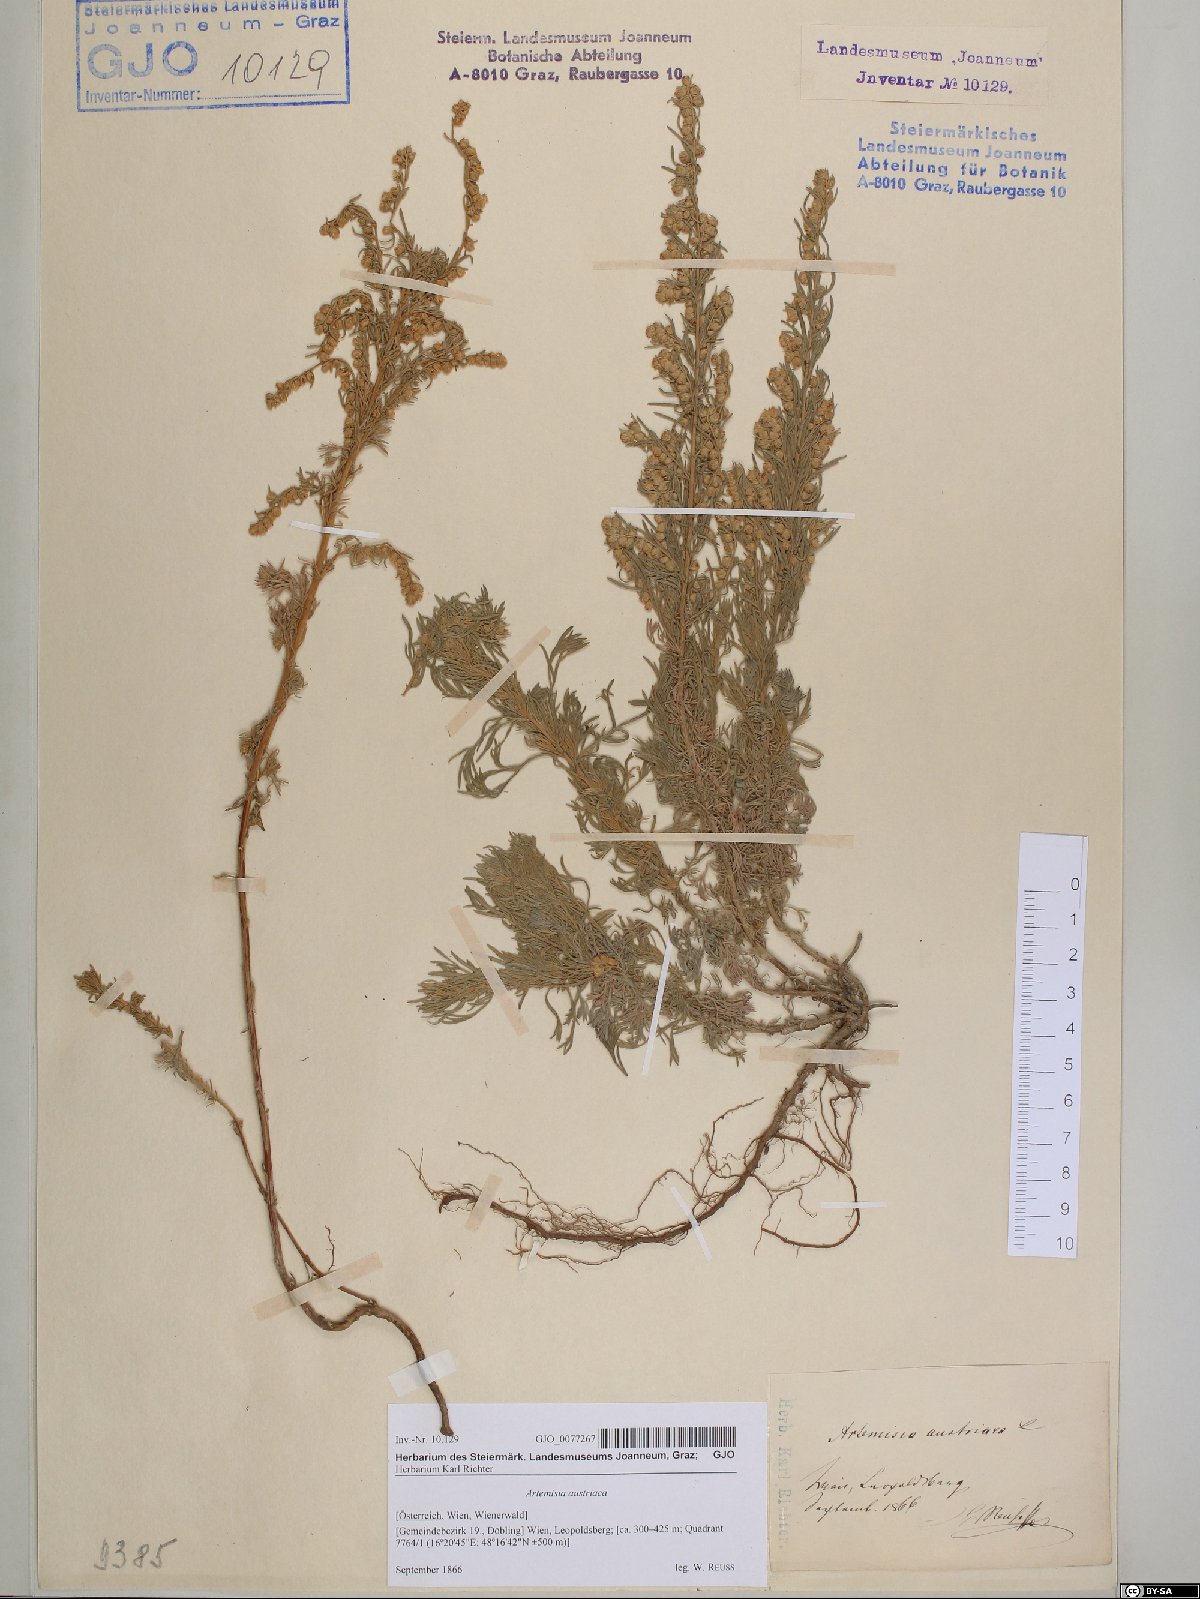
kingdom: Plantae
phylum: Tracheophyta
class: Magnoliopsida
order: Asterales
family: Asteraceae
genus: Artemisia
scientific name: Artemisia austriaca
